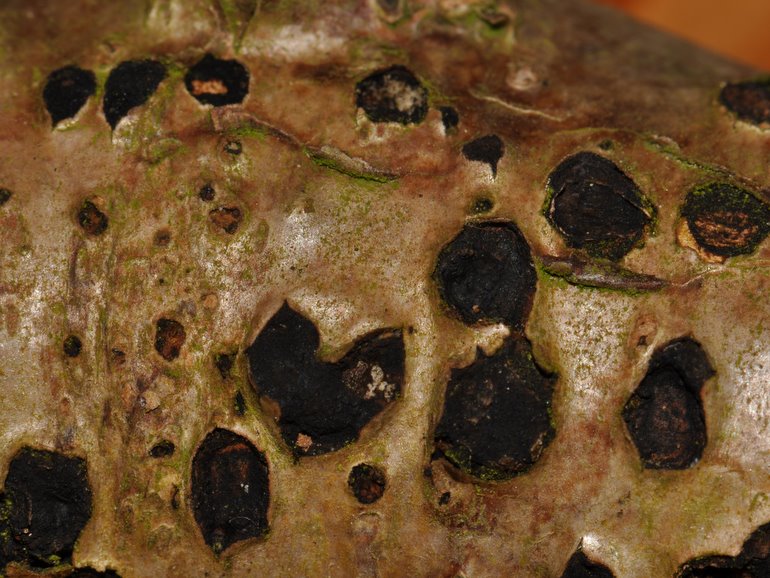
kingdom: Fungi
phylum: Ascomycota
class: Sordariomycetes
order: Xylariales
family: Diatrypaceae
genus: Diatrypella
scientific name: Diatrypella favacea
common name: klemt kulskorpe
